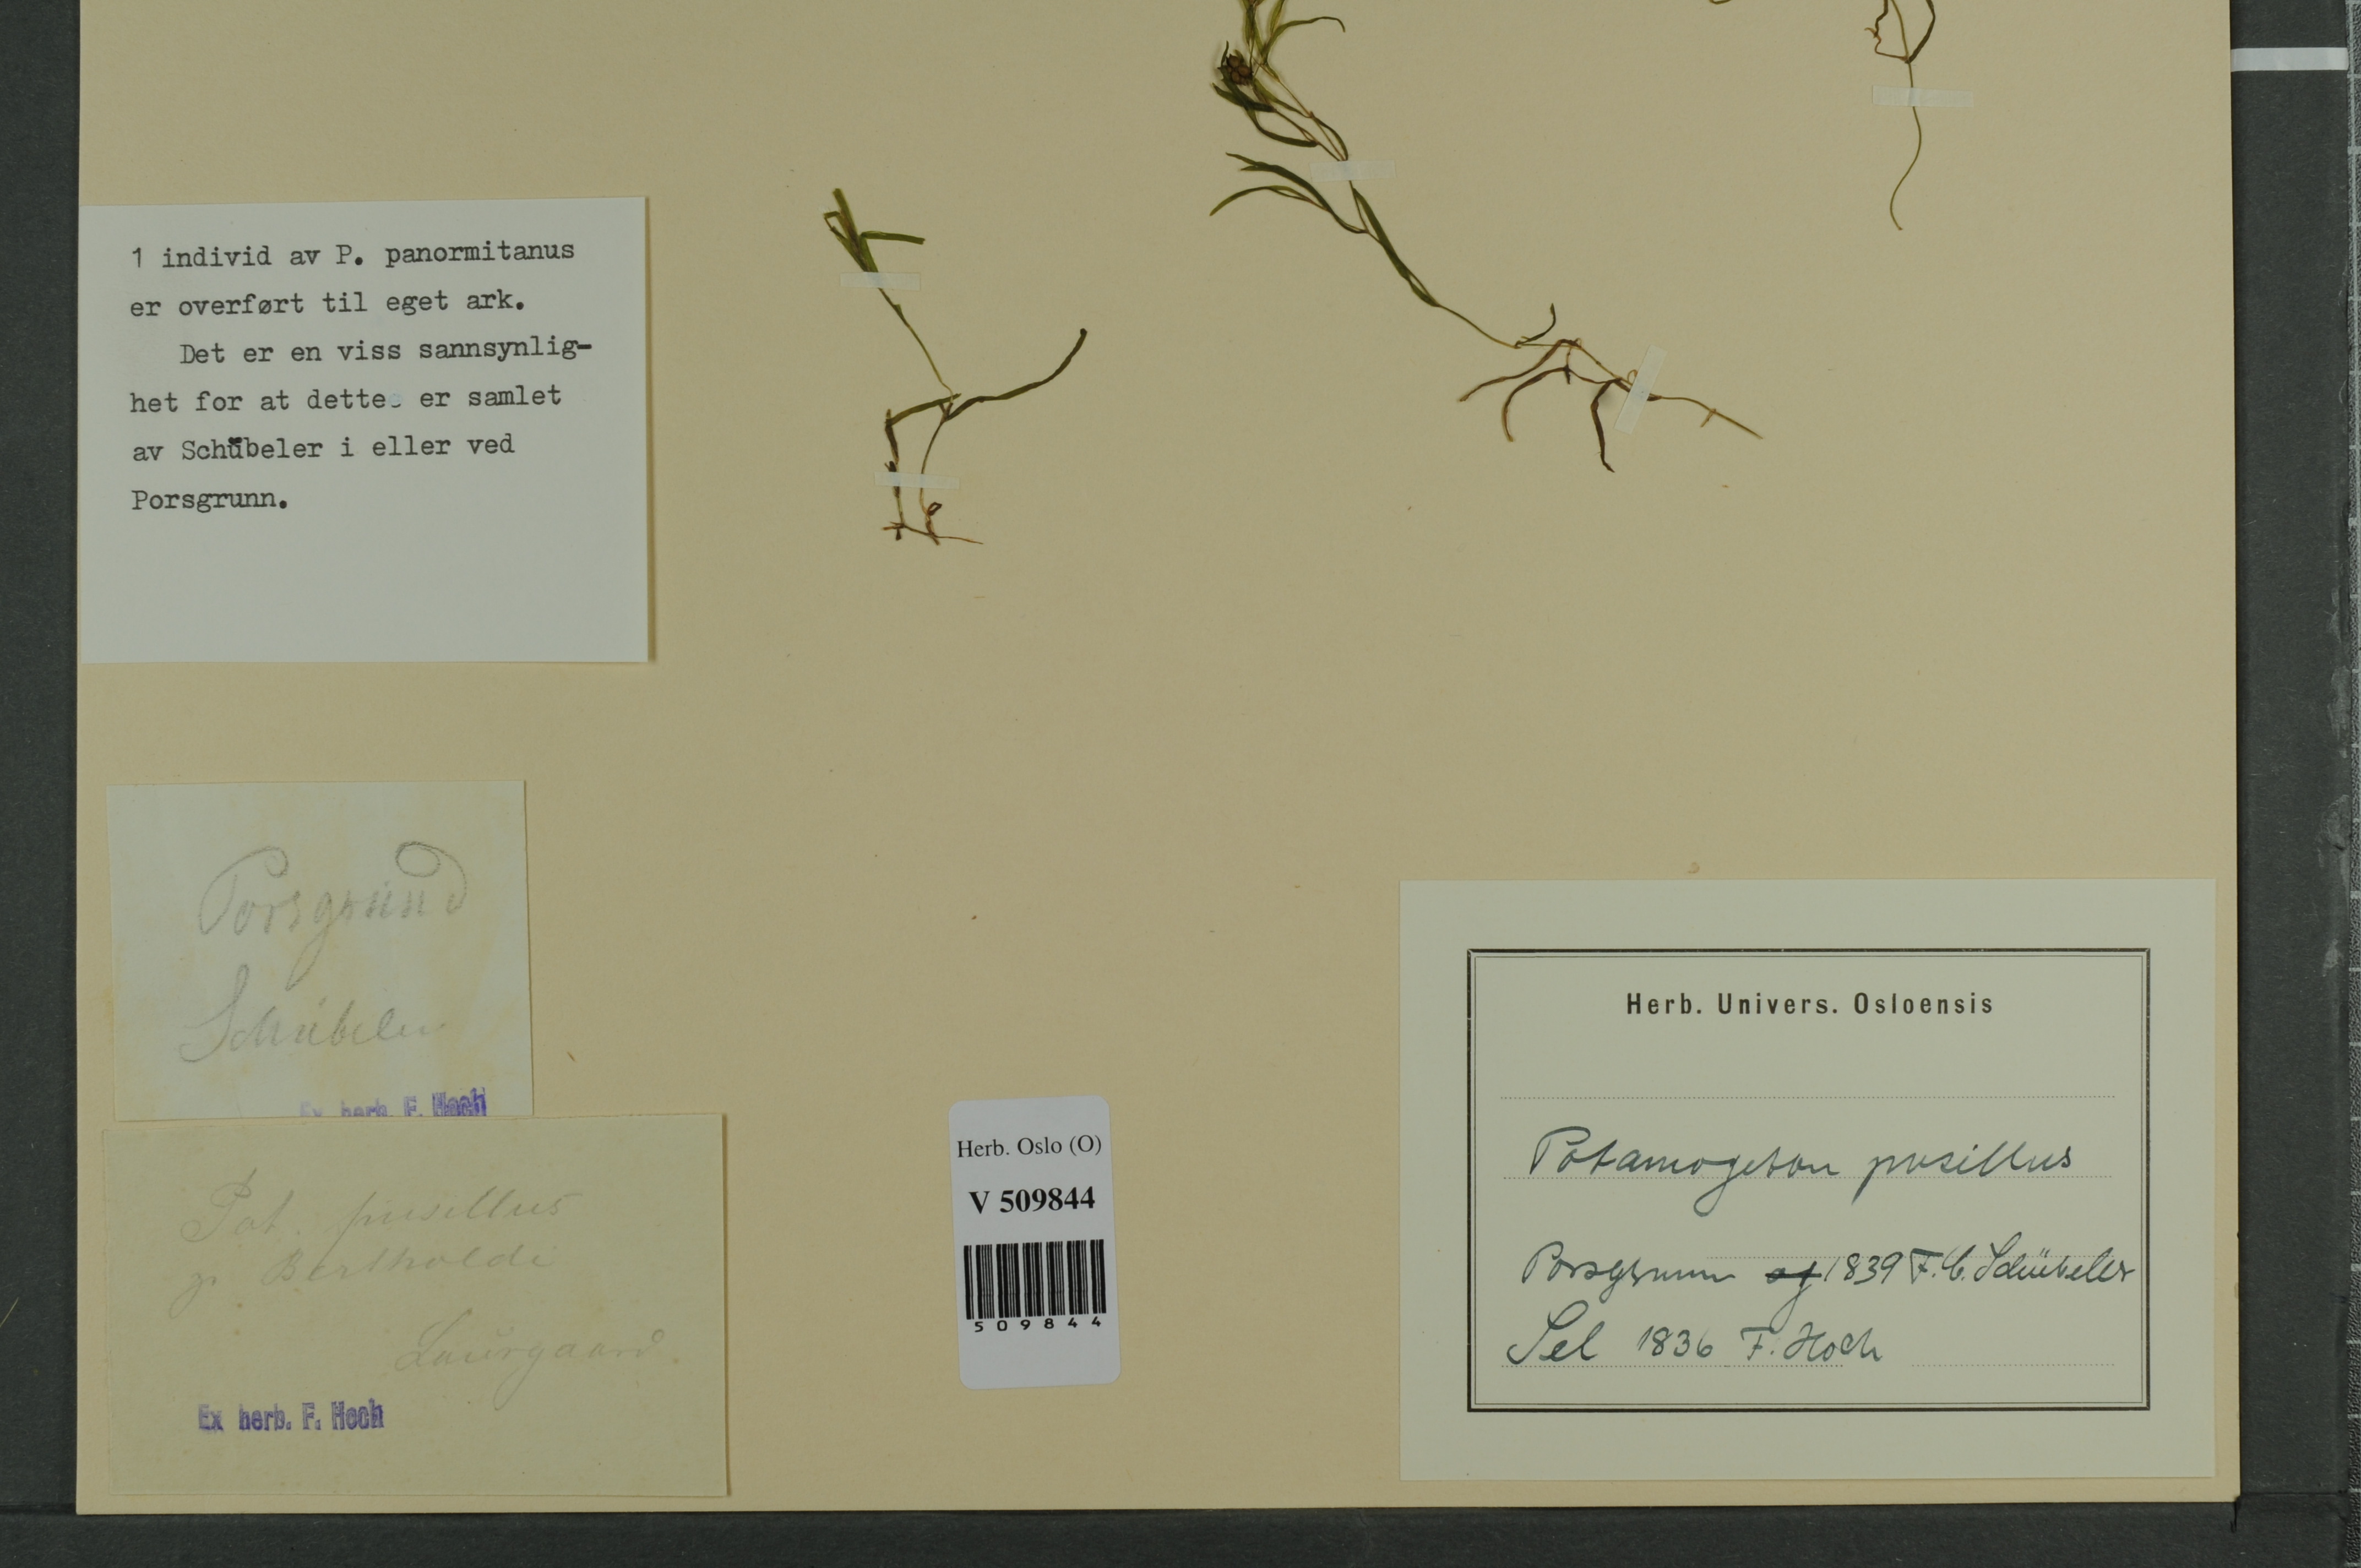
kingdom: Plantae
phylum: Tracheophyta
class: Liliopsida
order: Alismatales
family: Potamogetonaceae
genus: Potamogeton
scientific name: Potamogeton berchtoldii
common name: Small pondweed
